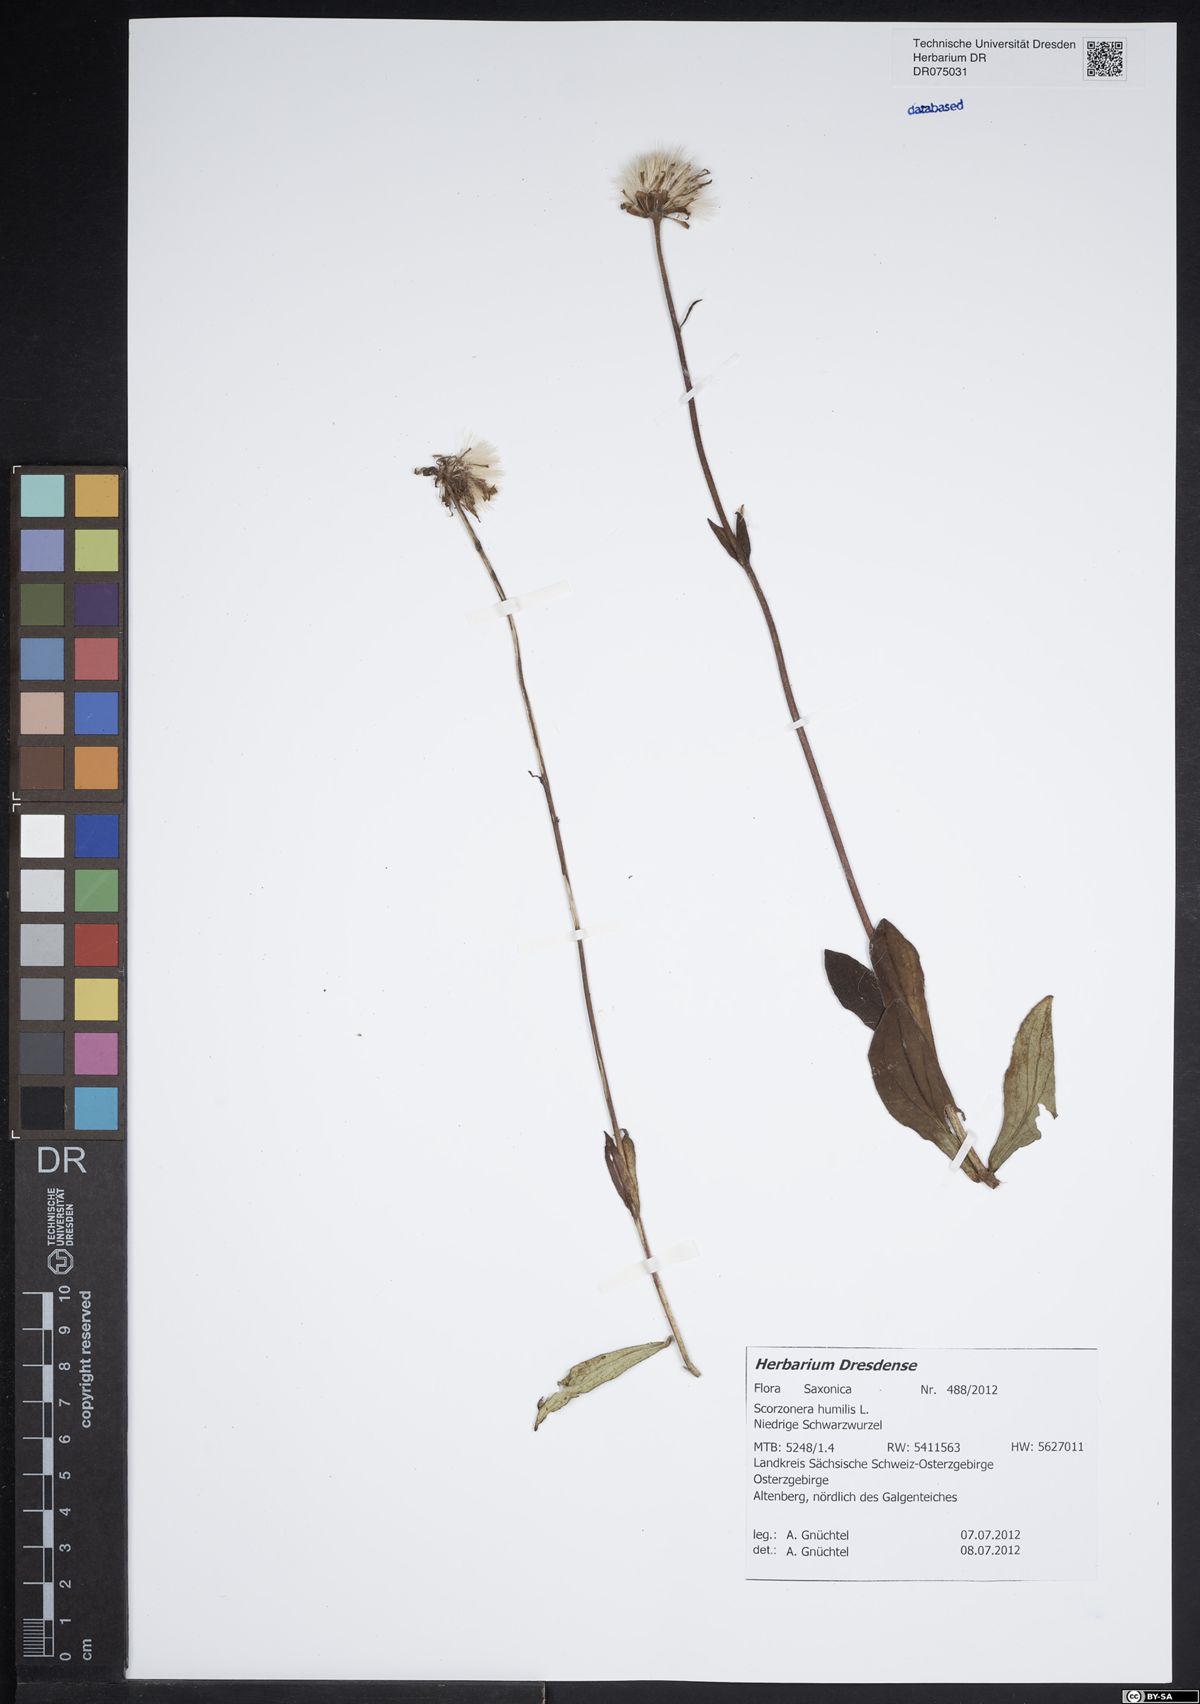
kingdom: Plantae
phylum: Tracheophyta
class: Magnoliopsida
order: Asterales
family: Asteraceae
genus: Scorzonera
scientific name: Scorzonera humilis
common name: Viper's-grass
